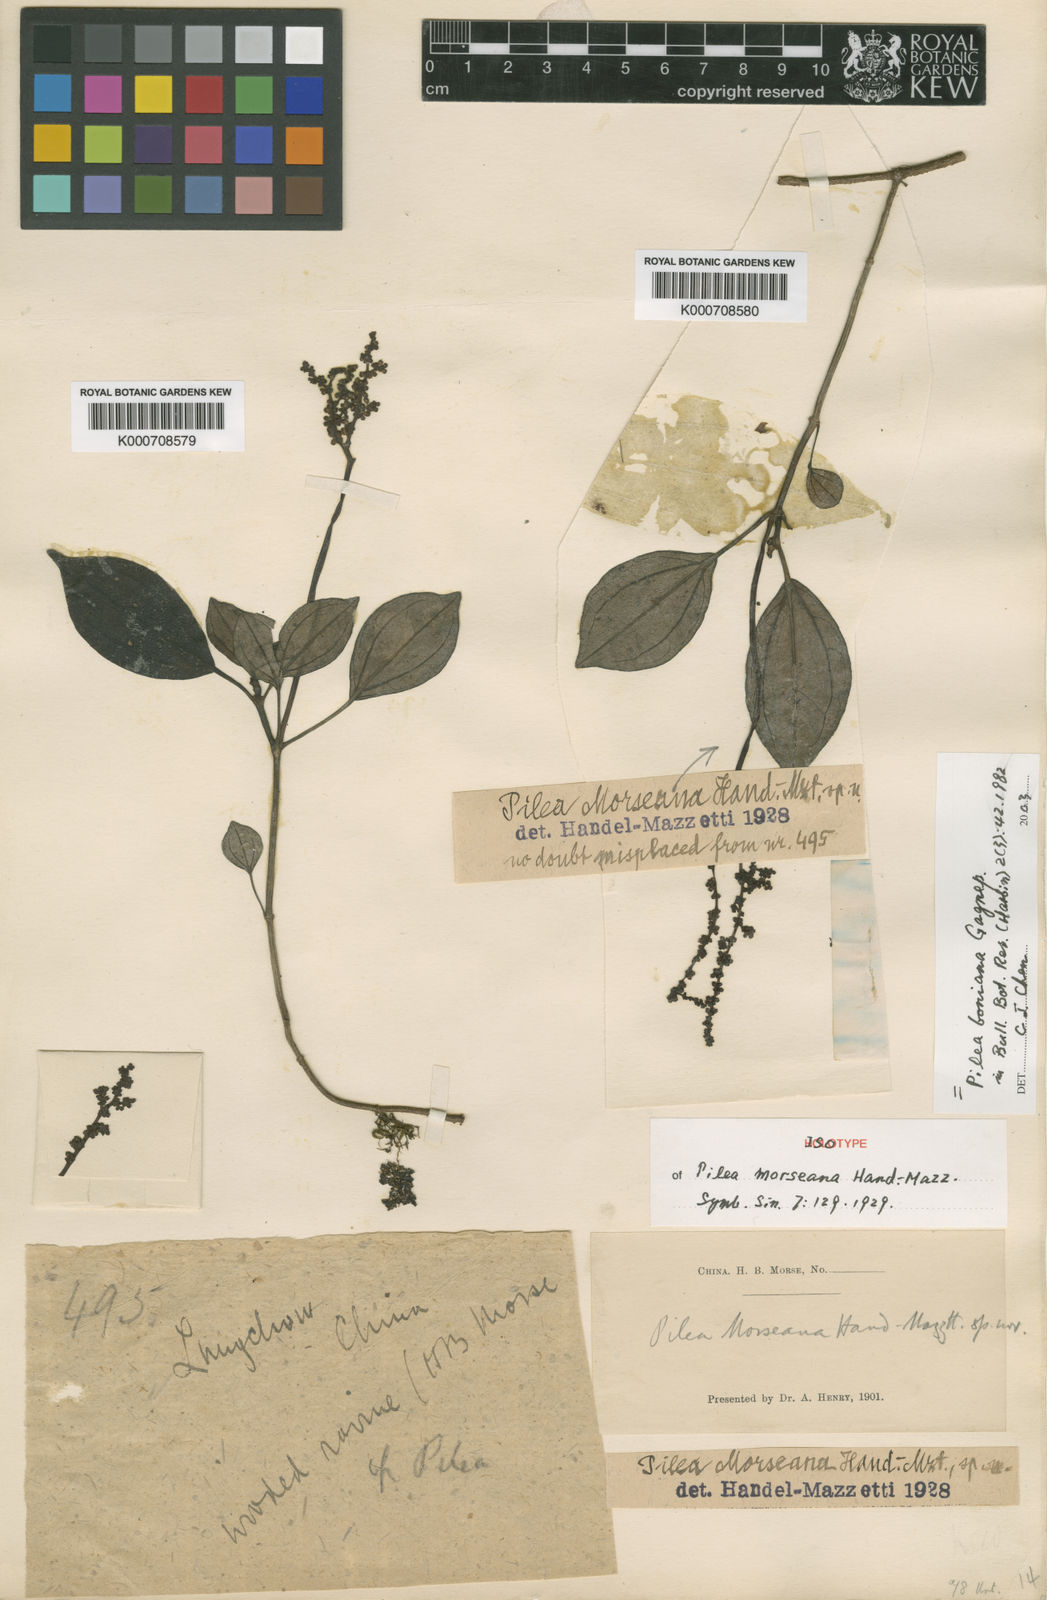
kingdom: Plantae
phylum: Tracheophyta
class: Magnoliopsida
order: Rosales
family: Urticaceae
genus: Achudemia
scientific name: Achudemia boniana
